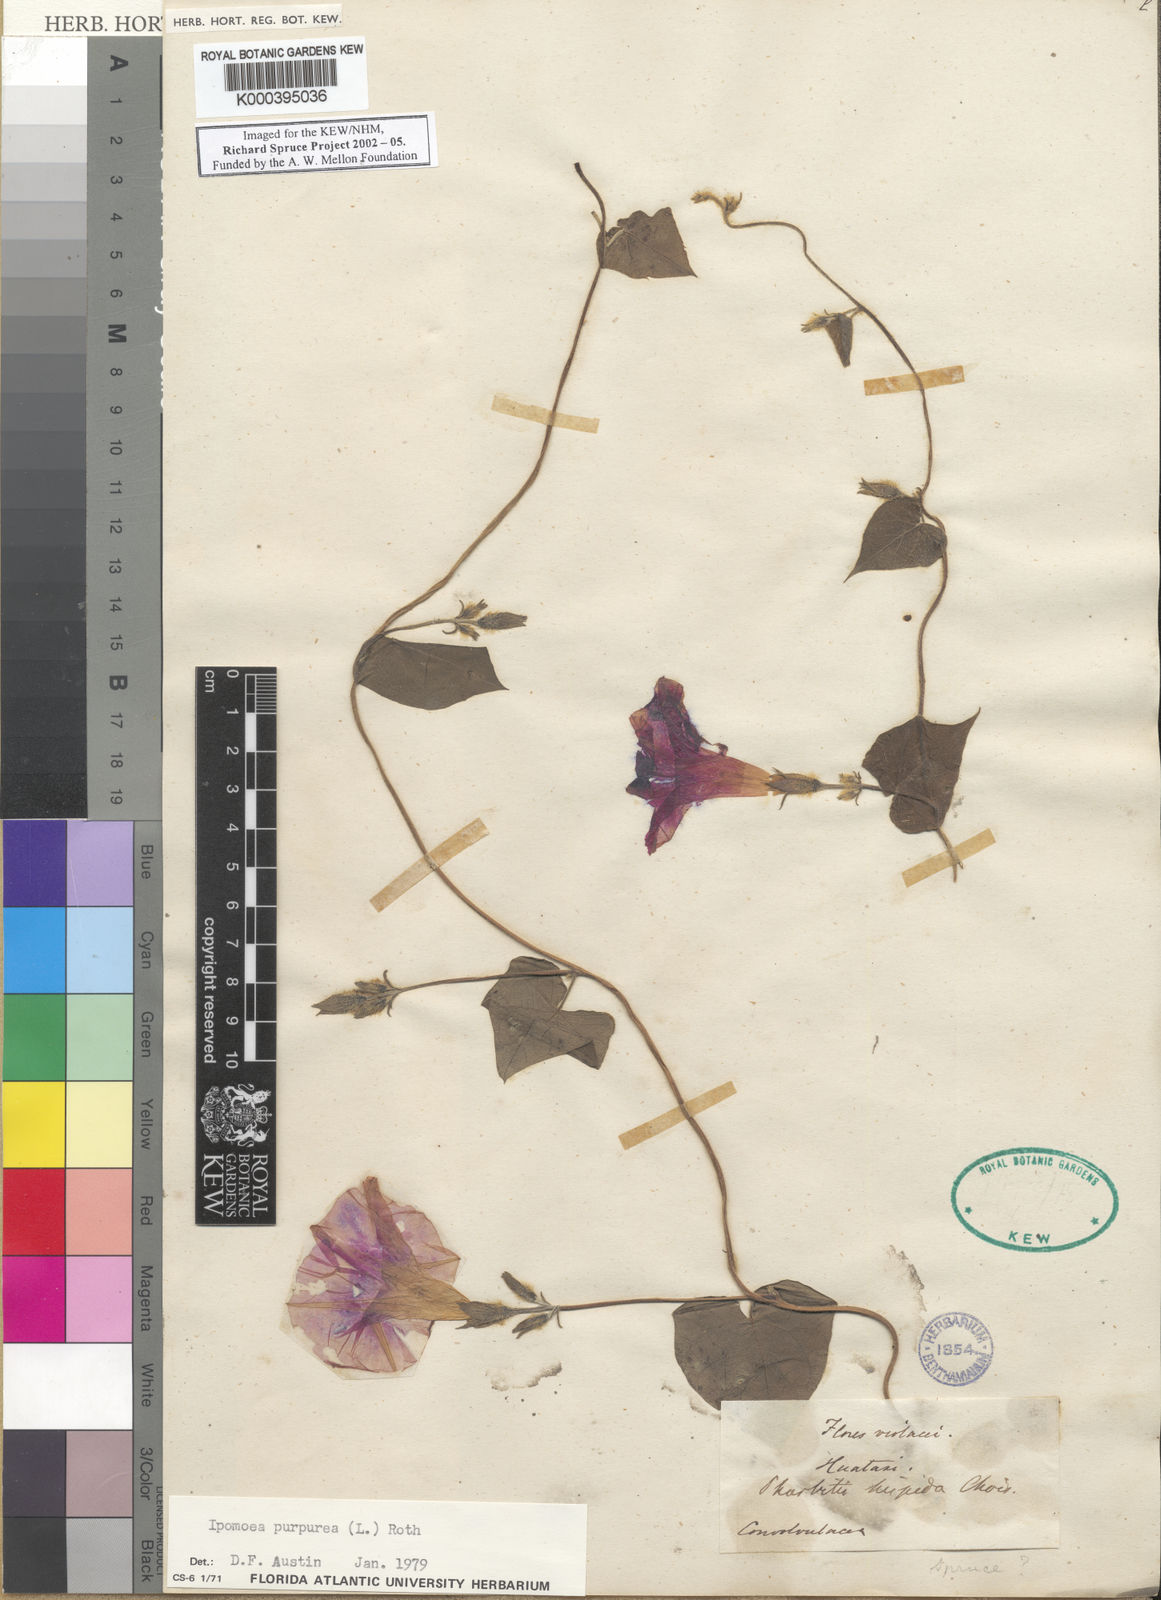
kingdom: Plantae
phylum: Tracheophyta
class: Magnoliopsida
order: Solanales
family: Convolvulaceae
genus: Ipomoea
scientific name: Ipomoea purpurea
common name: Common morning-glory
